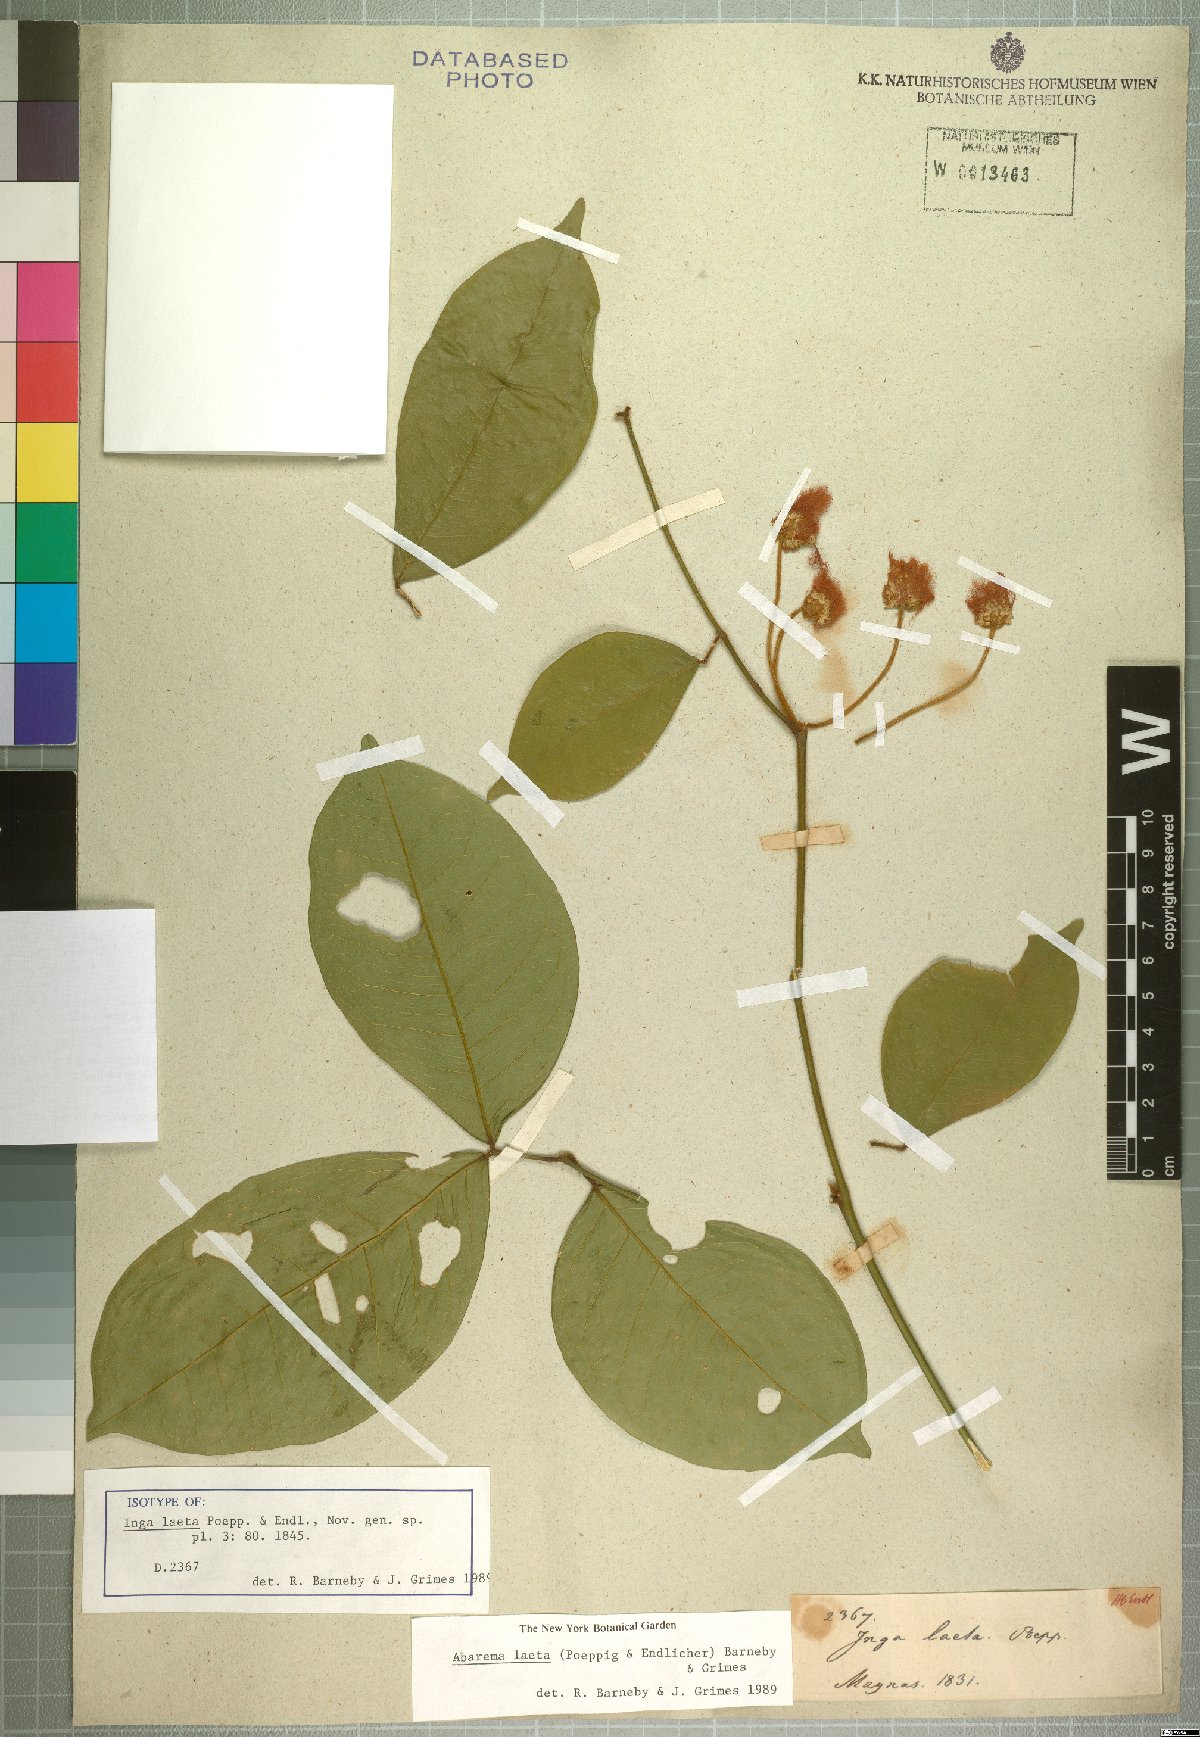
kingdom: Plantae
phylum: Tracheophyta
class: Magnoliopsida
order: Fabales
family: Fabaceae
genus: Jupunba
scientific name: Jupunba laeta
